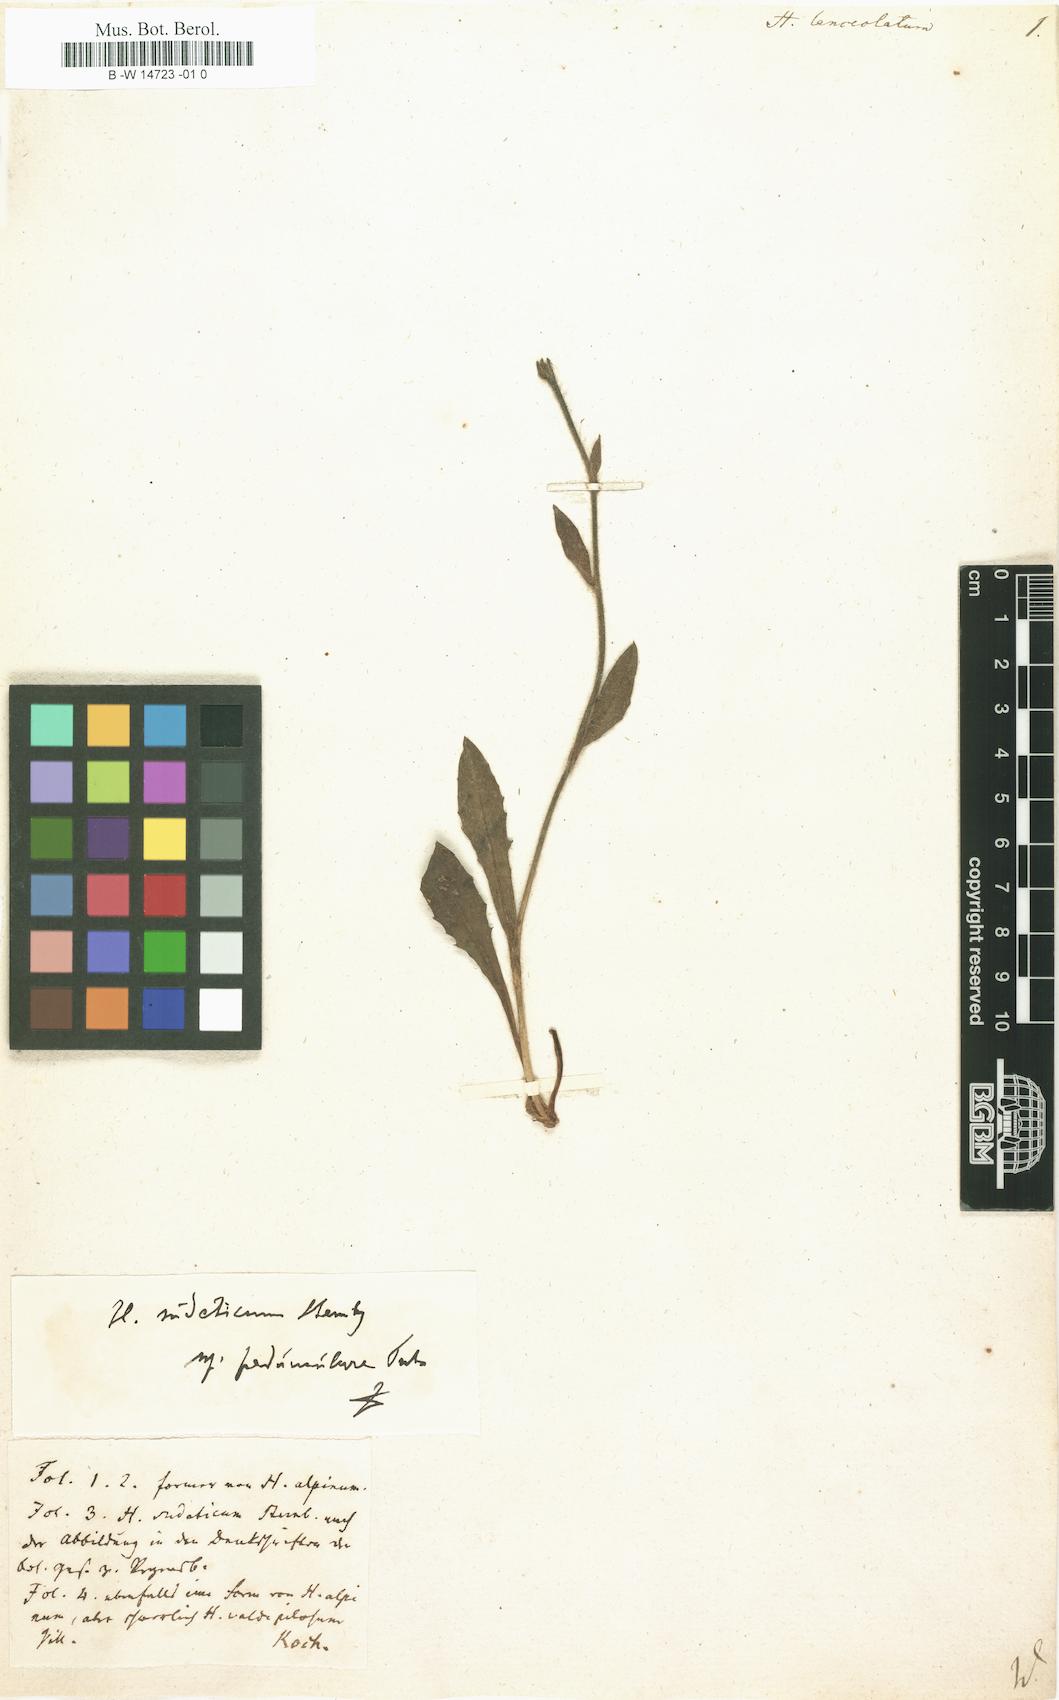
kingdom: Plantae
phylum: Tracheophyta
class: Magnoliopsida
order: Asterales
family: Asteraceae
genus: Hieracium
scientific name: Hieracium lanceolatum
